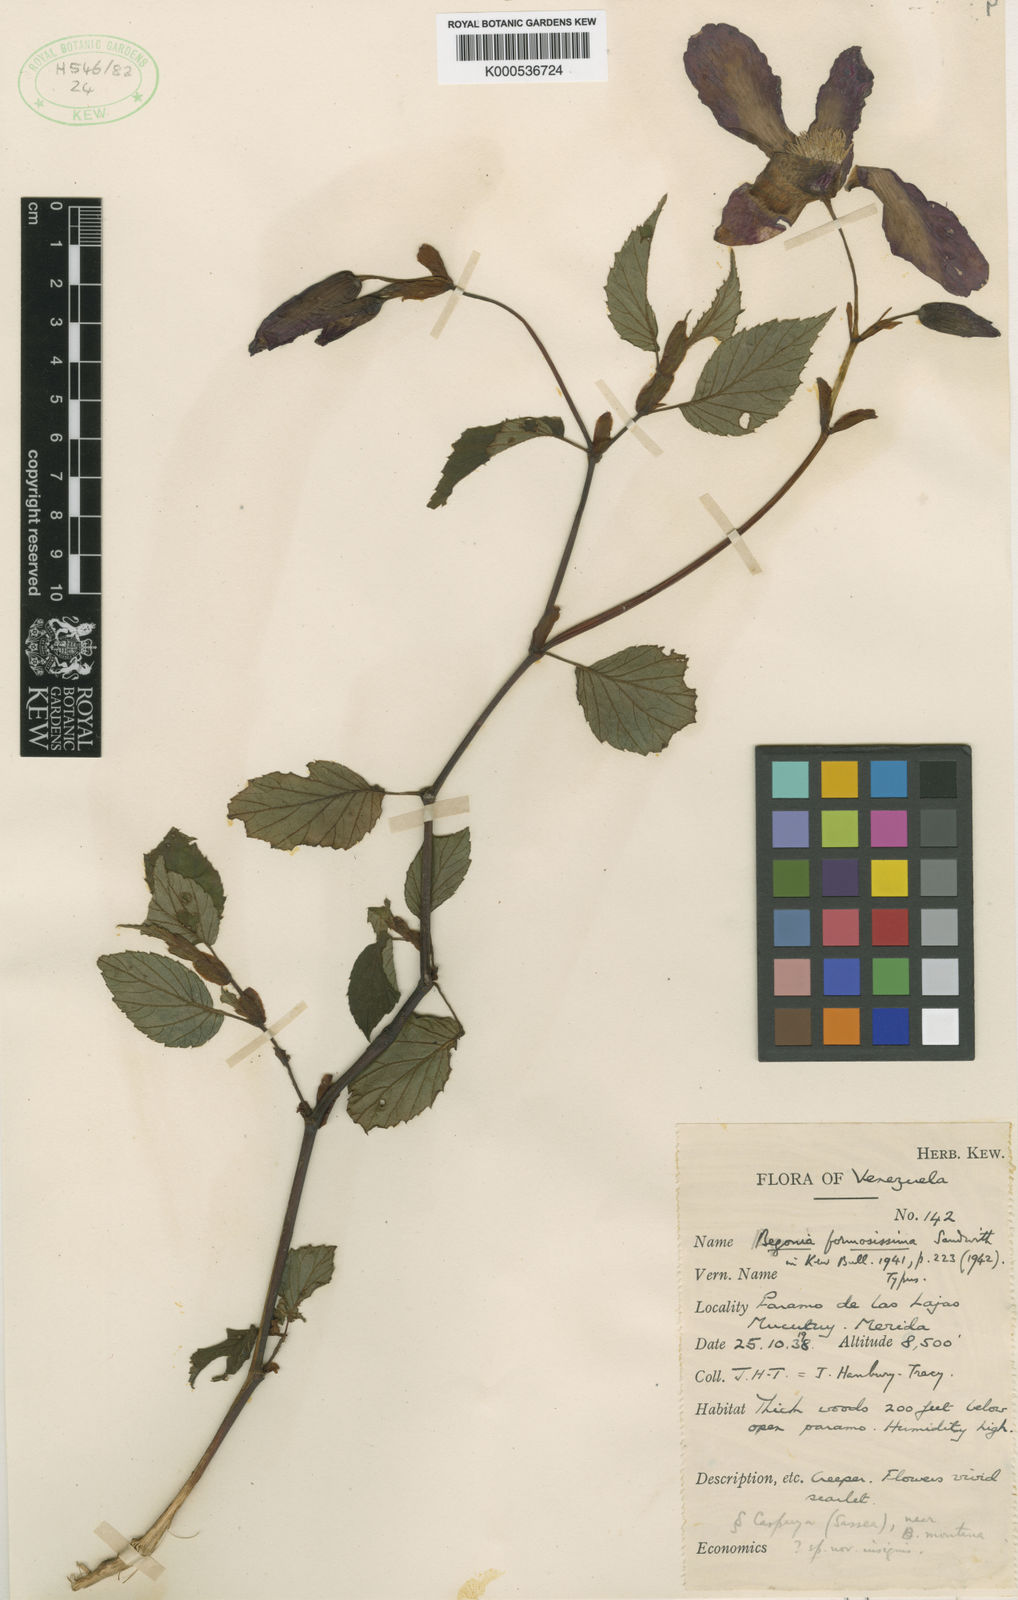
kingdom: Plantae
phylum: Tracheophyta
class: Magnoliopsida
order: Cucurbitales
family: Begoniaceae
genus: Begonia
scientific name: Begonia formosissima
